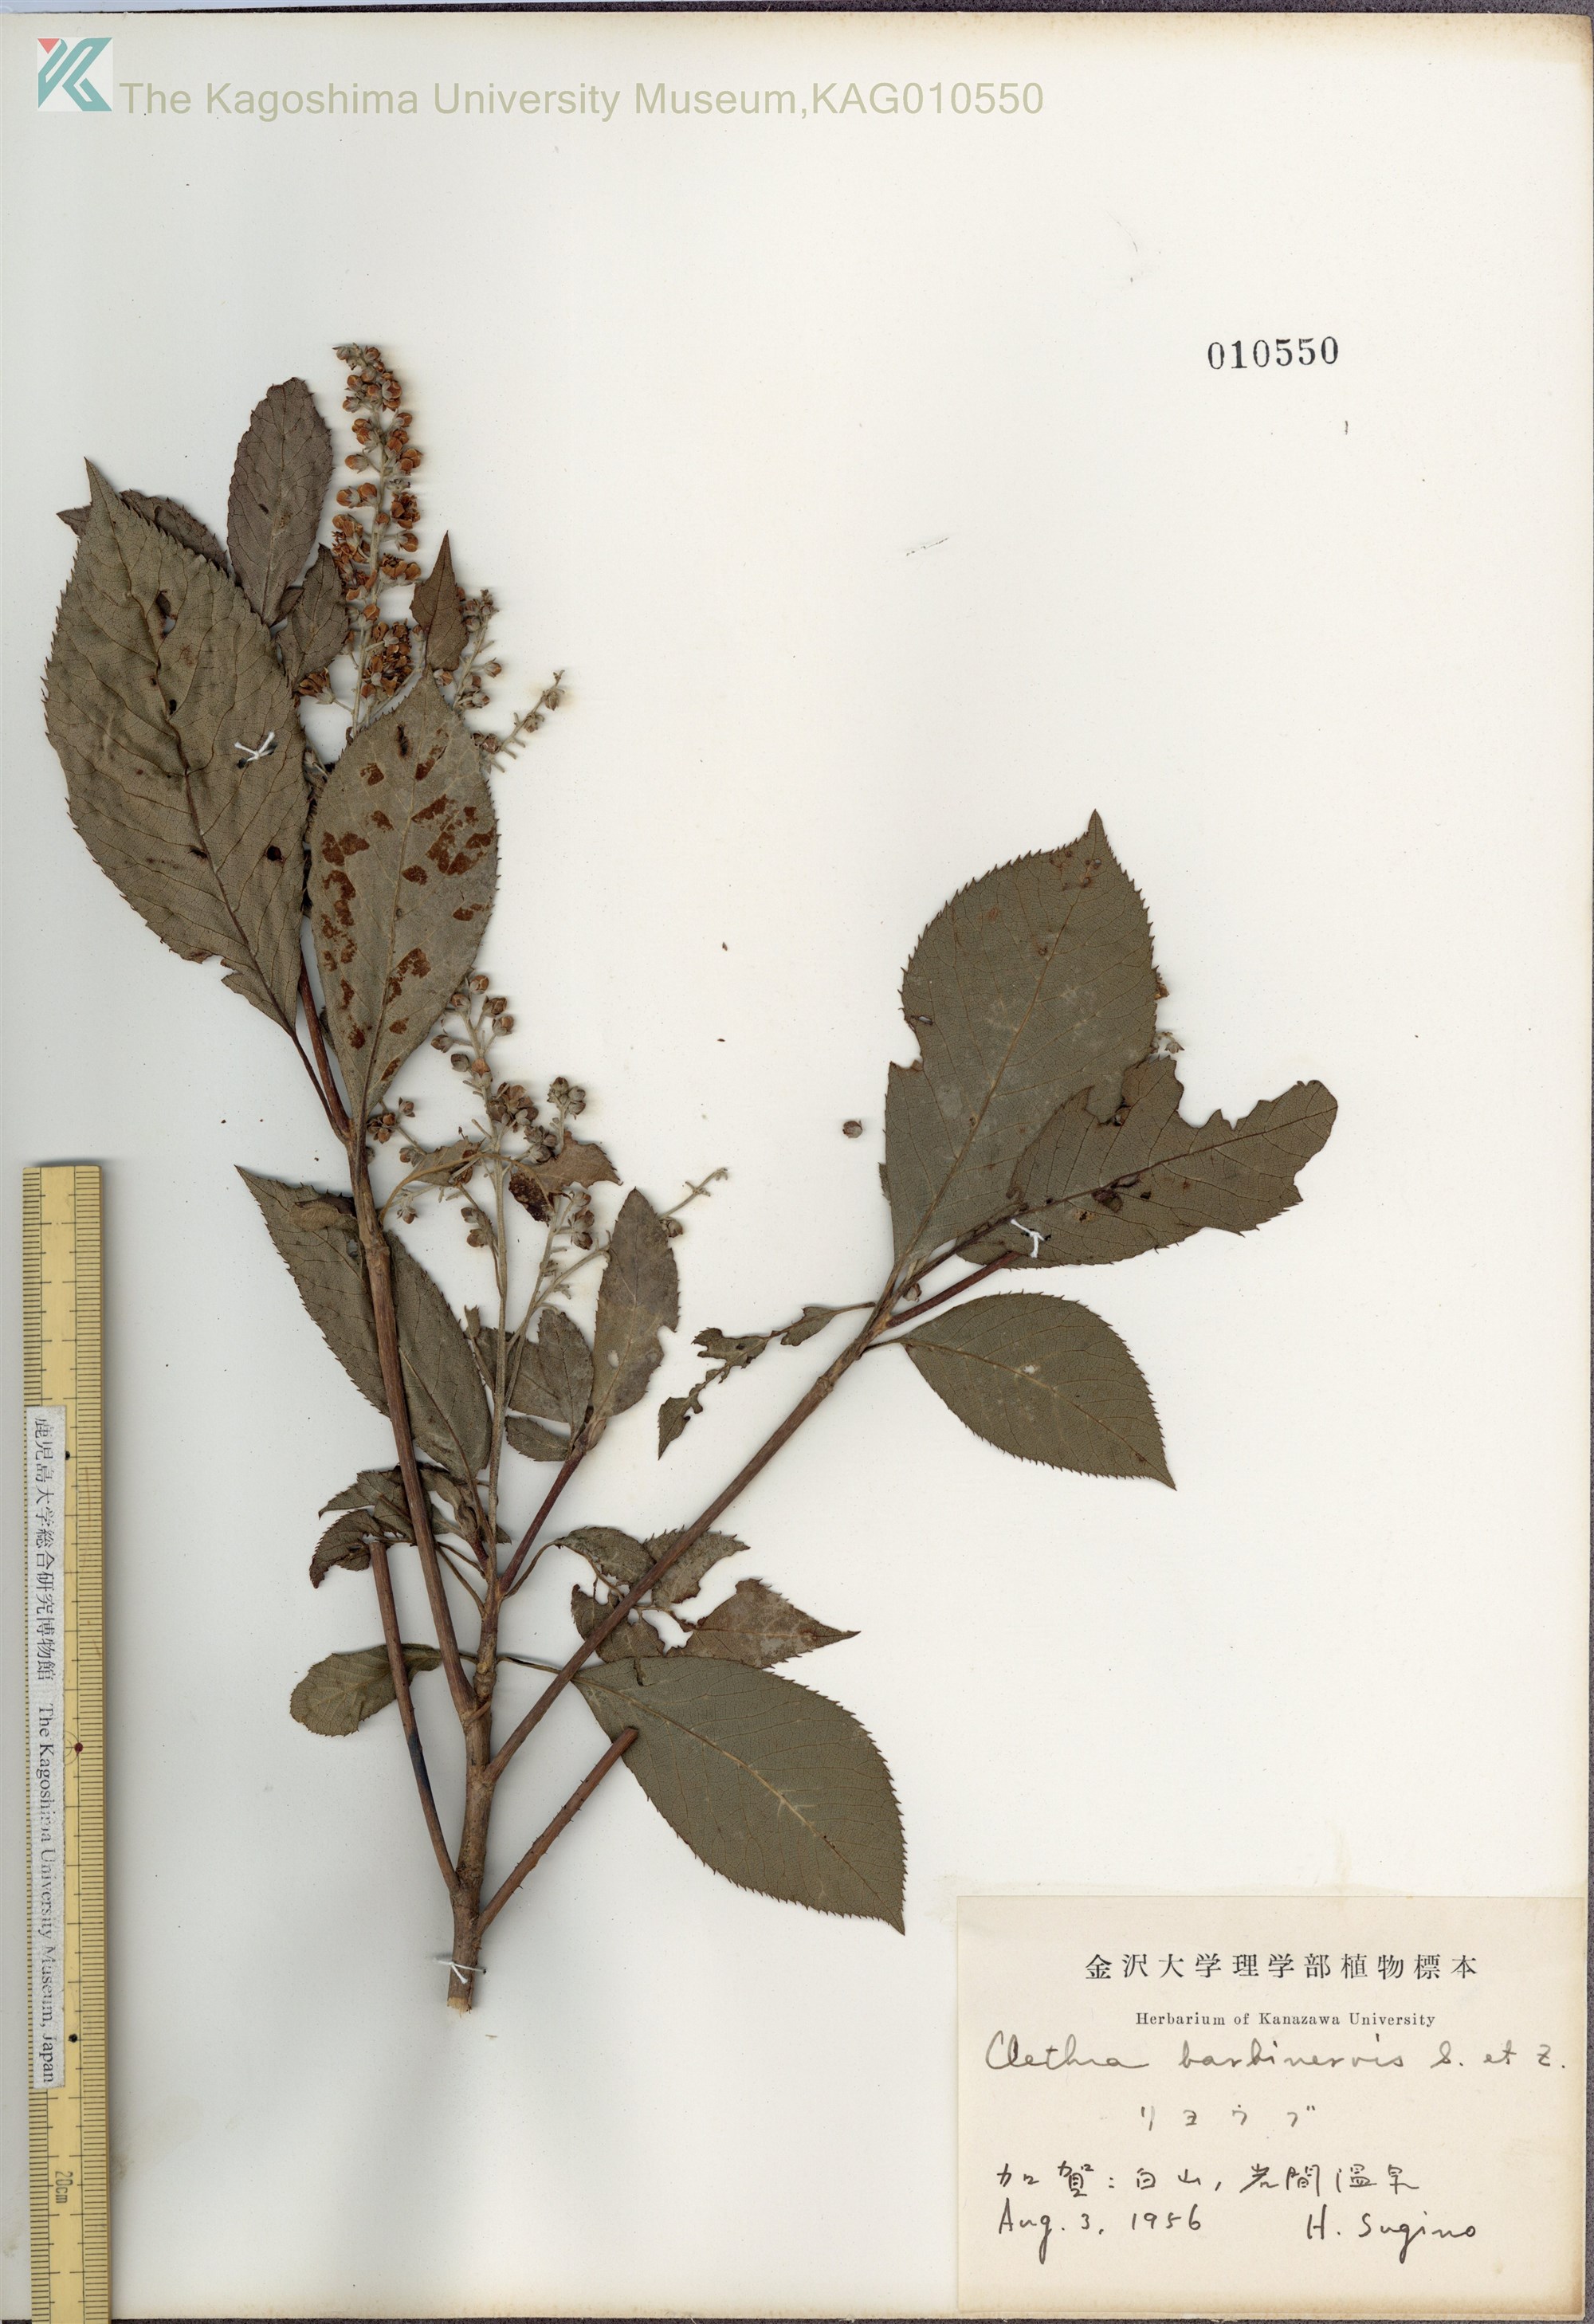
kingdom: Plantae
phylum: Tracheophyta
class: Magnoliopsida
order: Ericales
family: Clethraceae
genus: Clethra
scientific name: Clethra barbinervis
